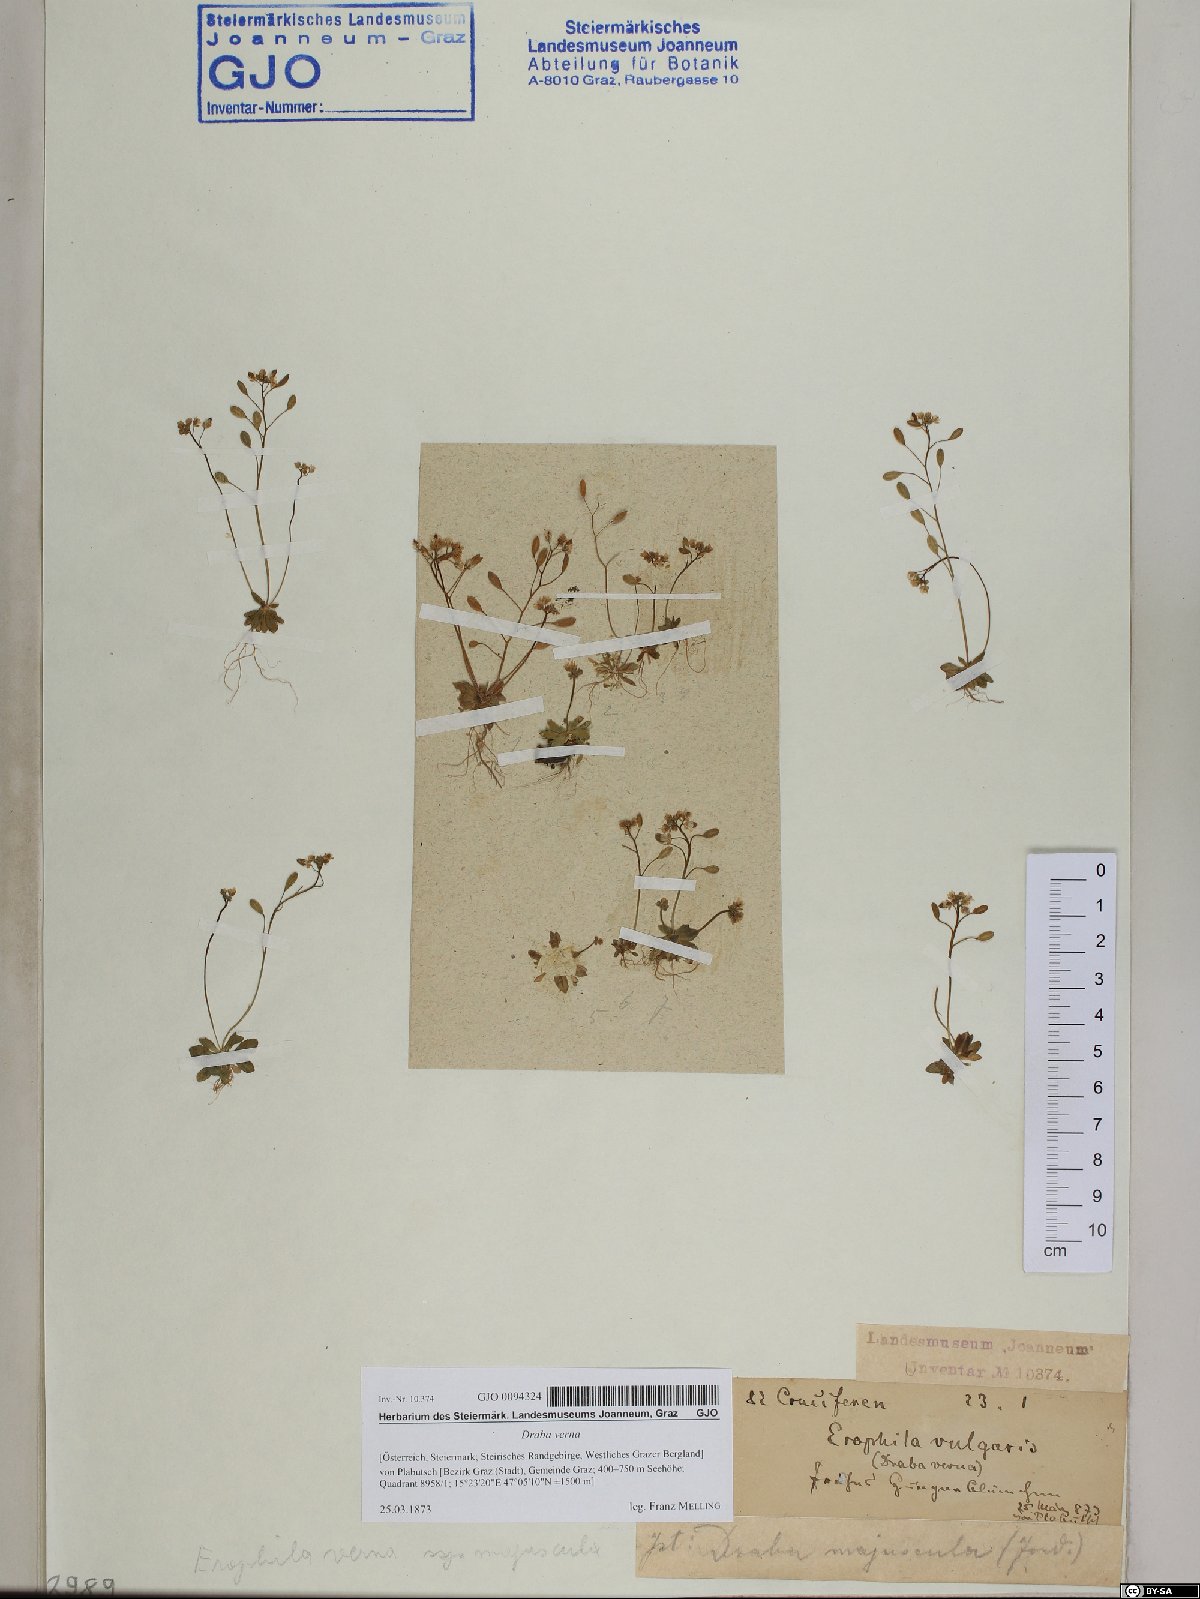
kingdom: Plantae
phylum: Tracheophyta
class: Magnoliopsida
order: Brassicales
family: Brassicaceae
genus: Draba
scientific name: Draba verna
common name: Spring draba
